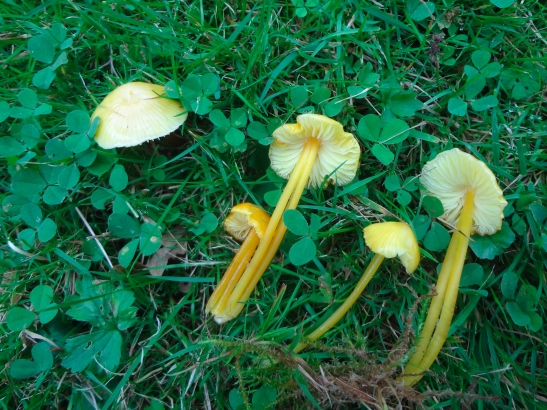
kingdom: Fungi
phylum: Basidiomycota
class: Agaricomycetes
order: Agaricales
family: Hygrophoraceae
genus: Hygrocybe
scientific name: Hygrocybe glutinipes
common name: slimstokket vokshat
